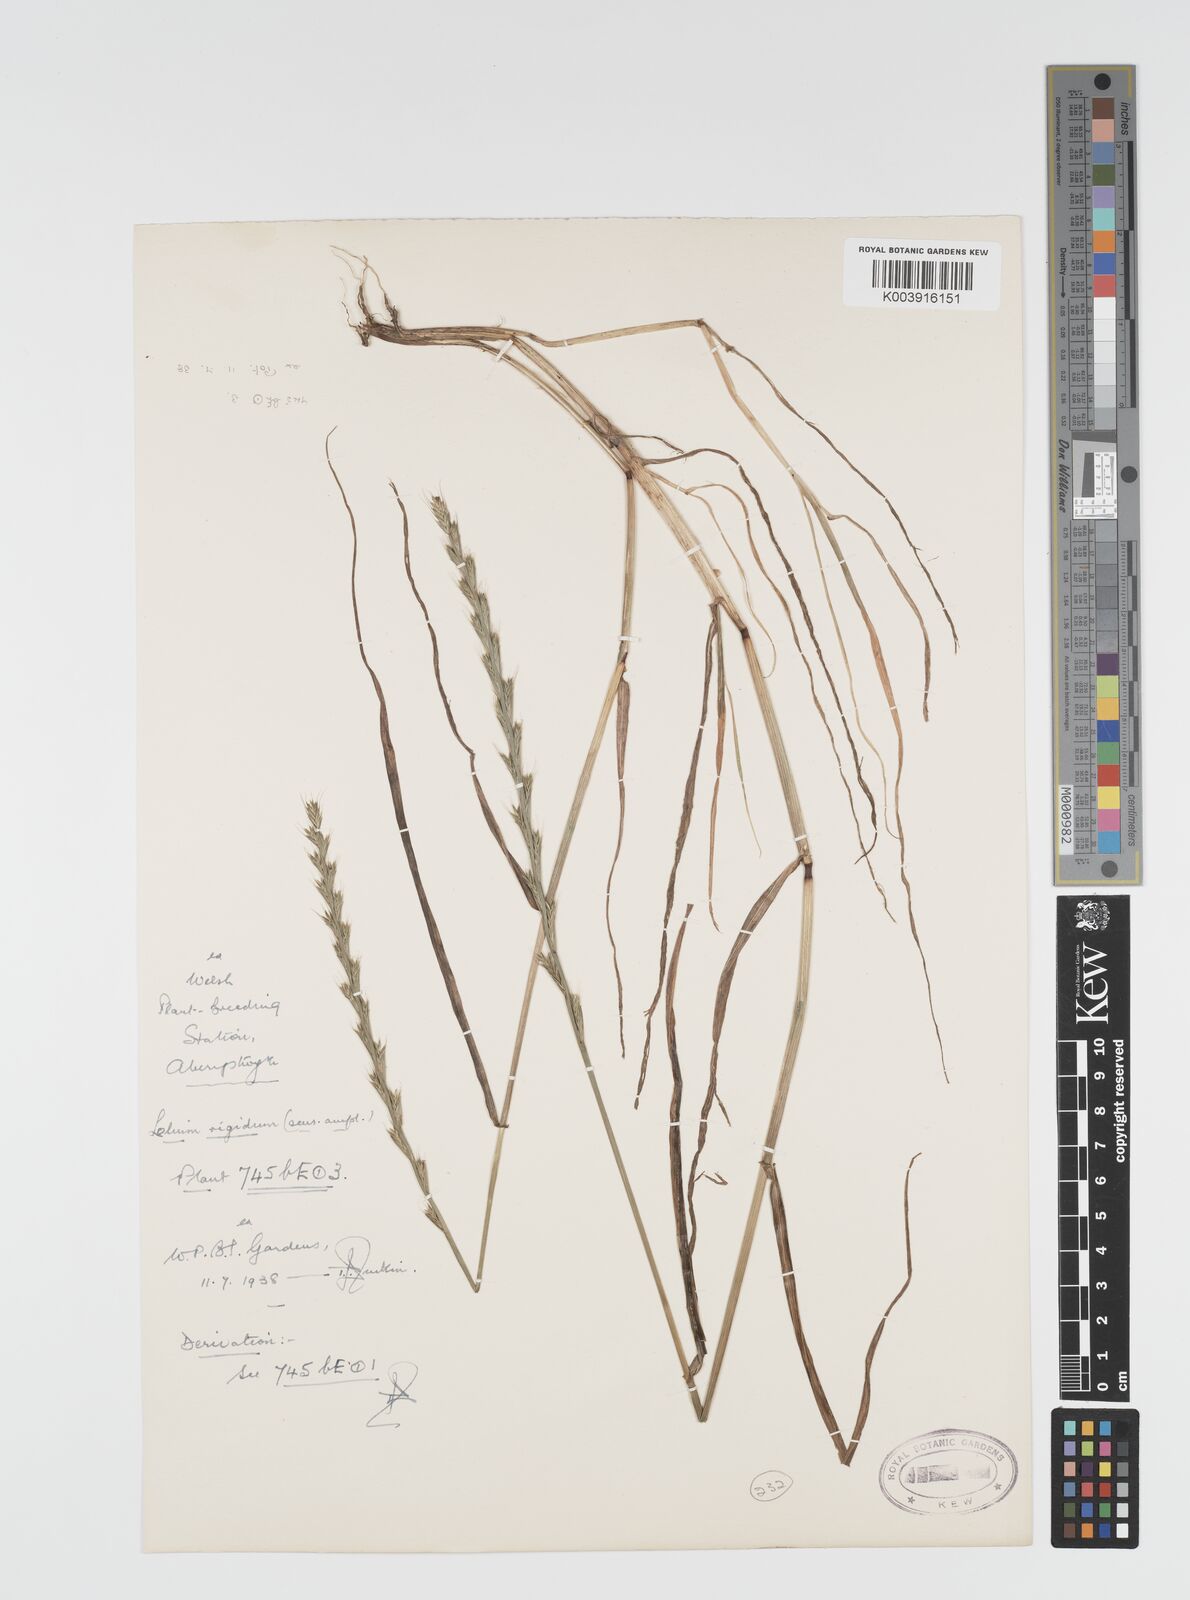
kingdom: Plantae
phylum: Tracheophyta
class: Liliopsida
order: Poales
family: Poaceae
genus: Lolium
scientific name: Lolium rigidum
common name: Wimmera ryegrass
